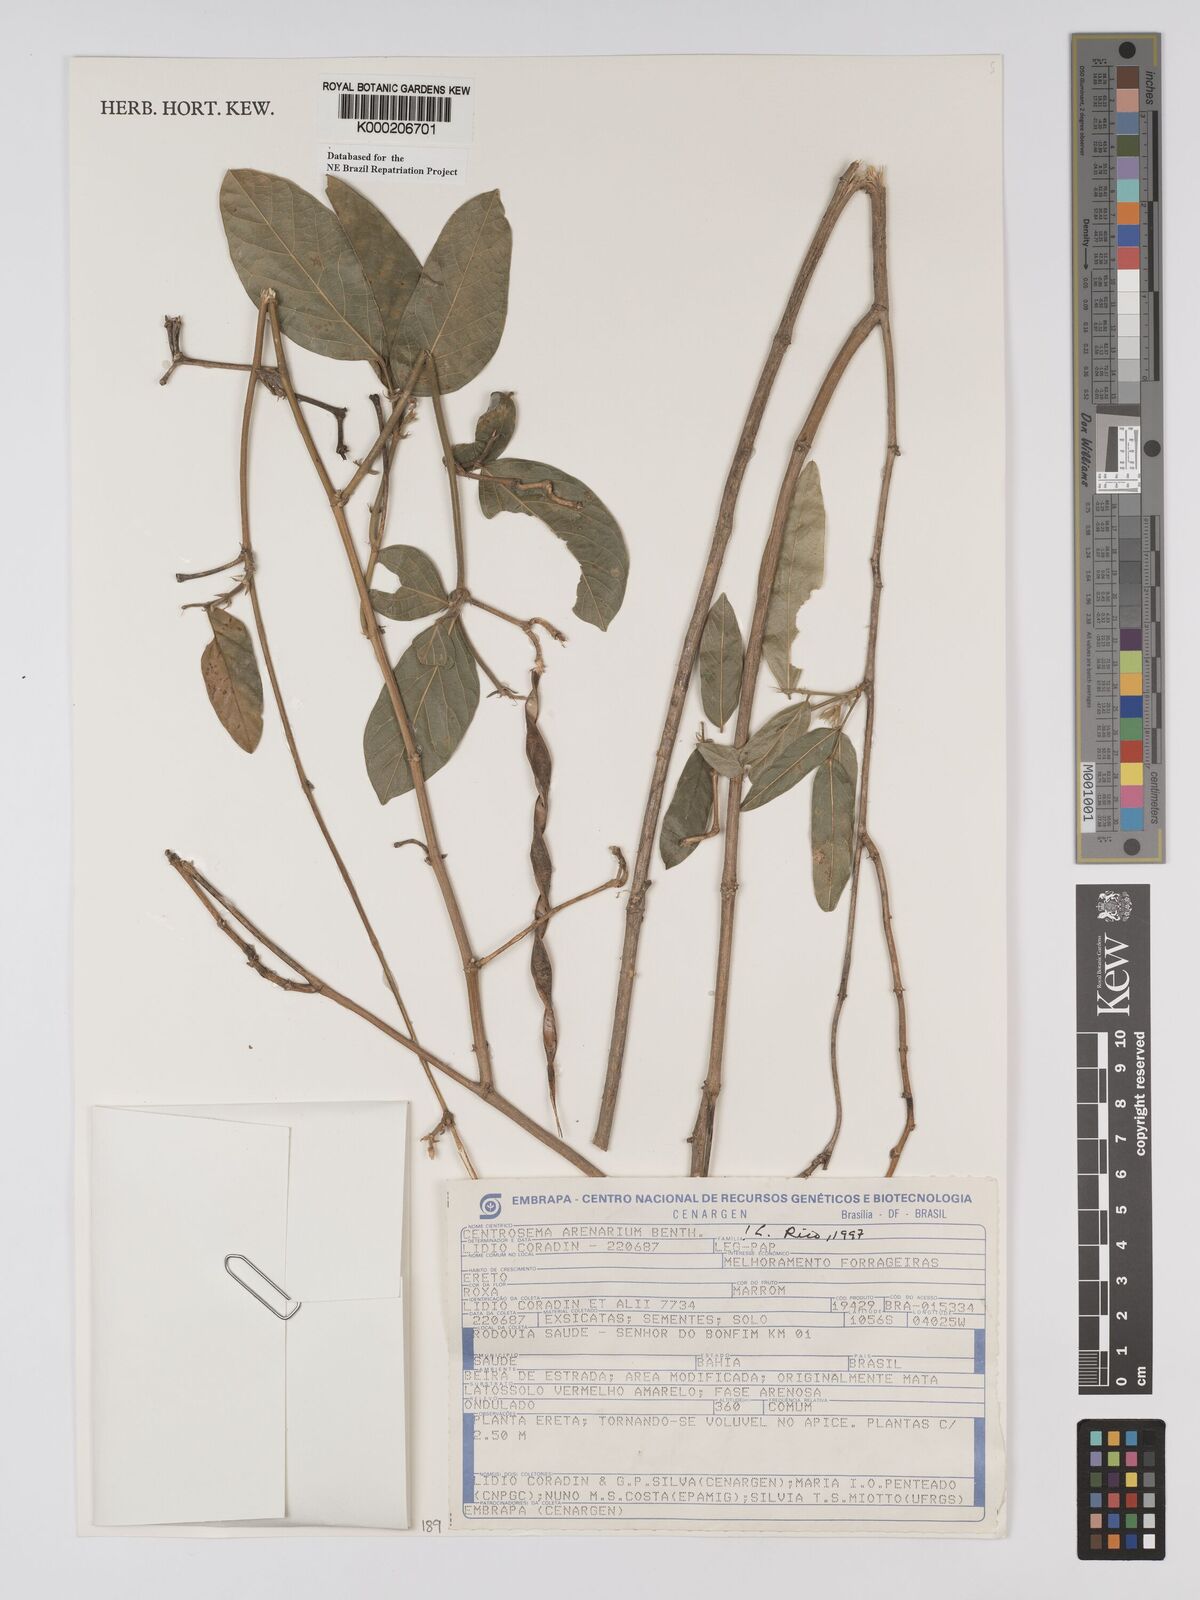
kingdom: Plantae
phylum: Tracheophyta
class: Magnoliopsida
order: Fabales
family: Fabaceae
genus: Centrosema
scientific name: Centrosema arenarium
